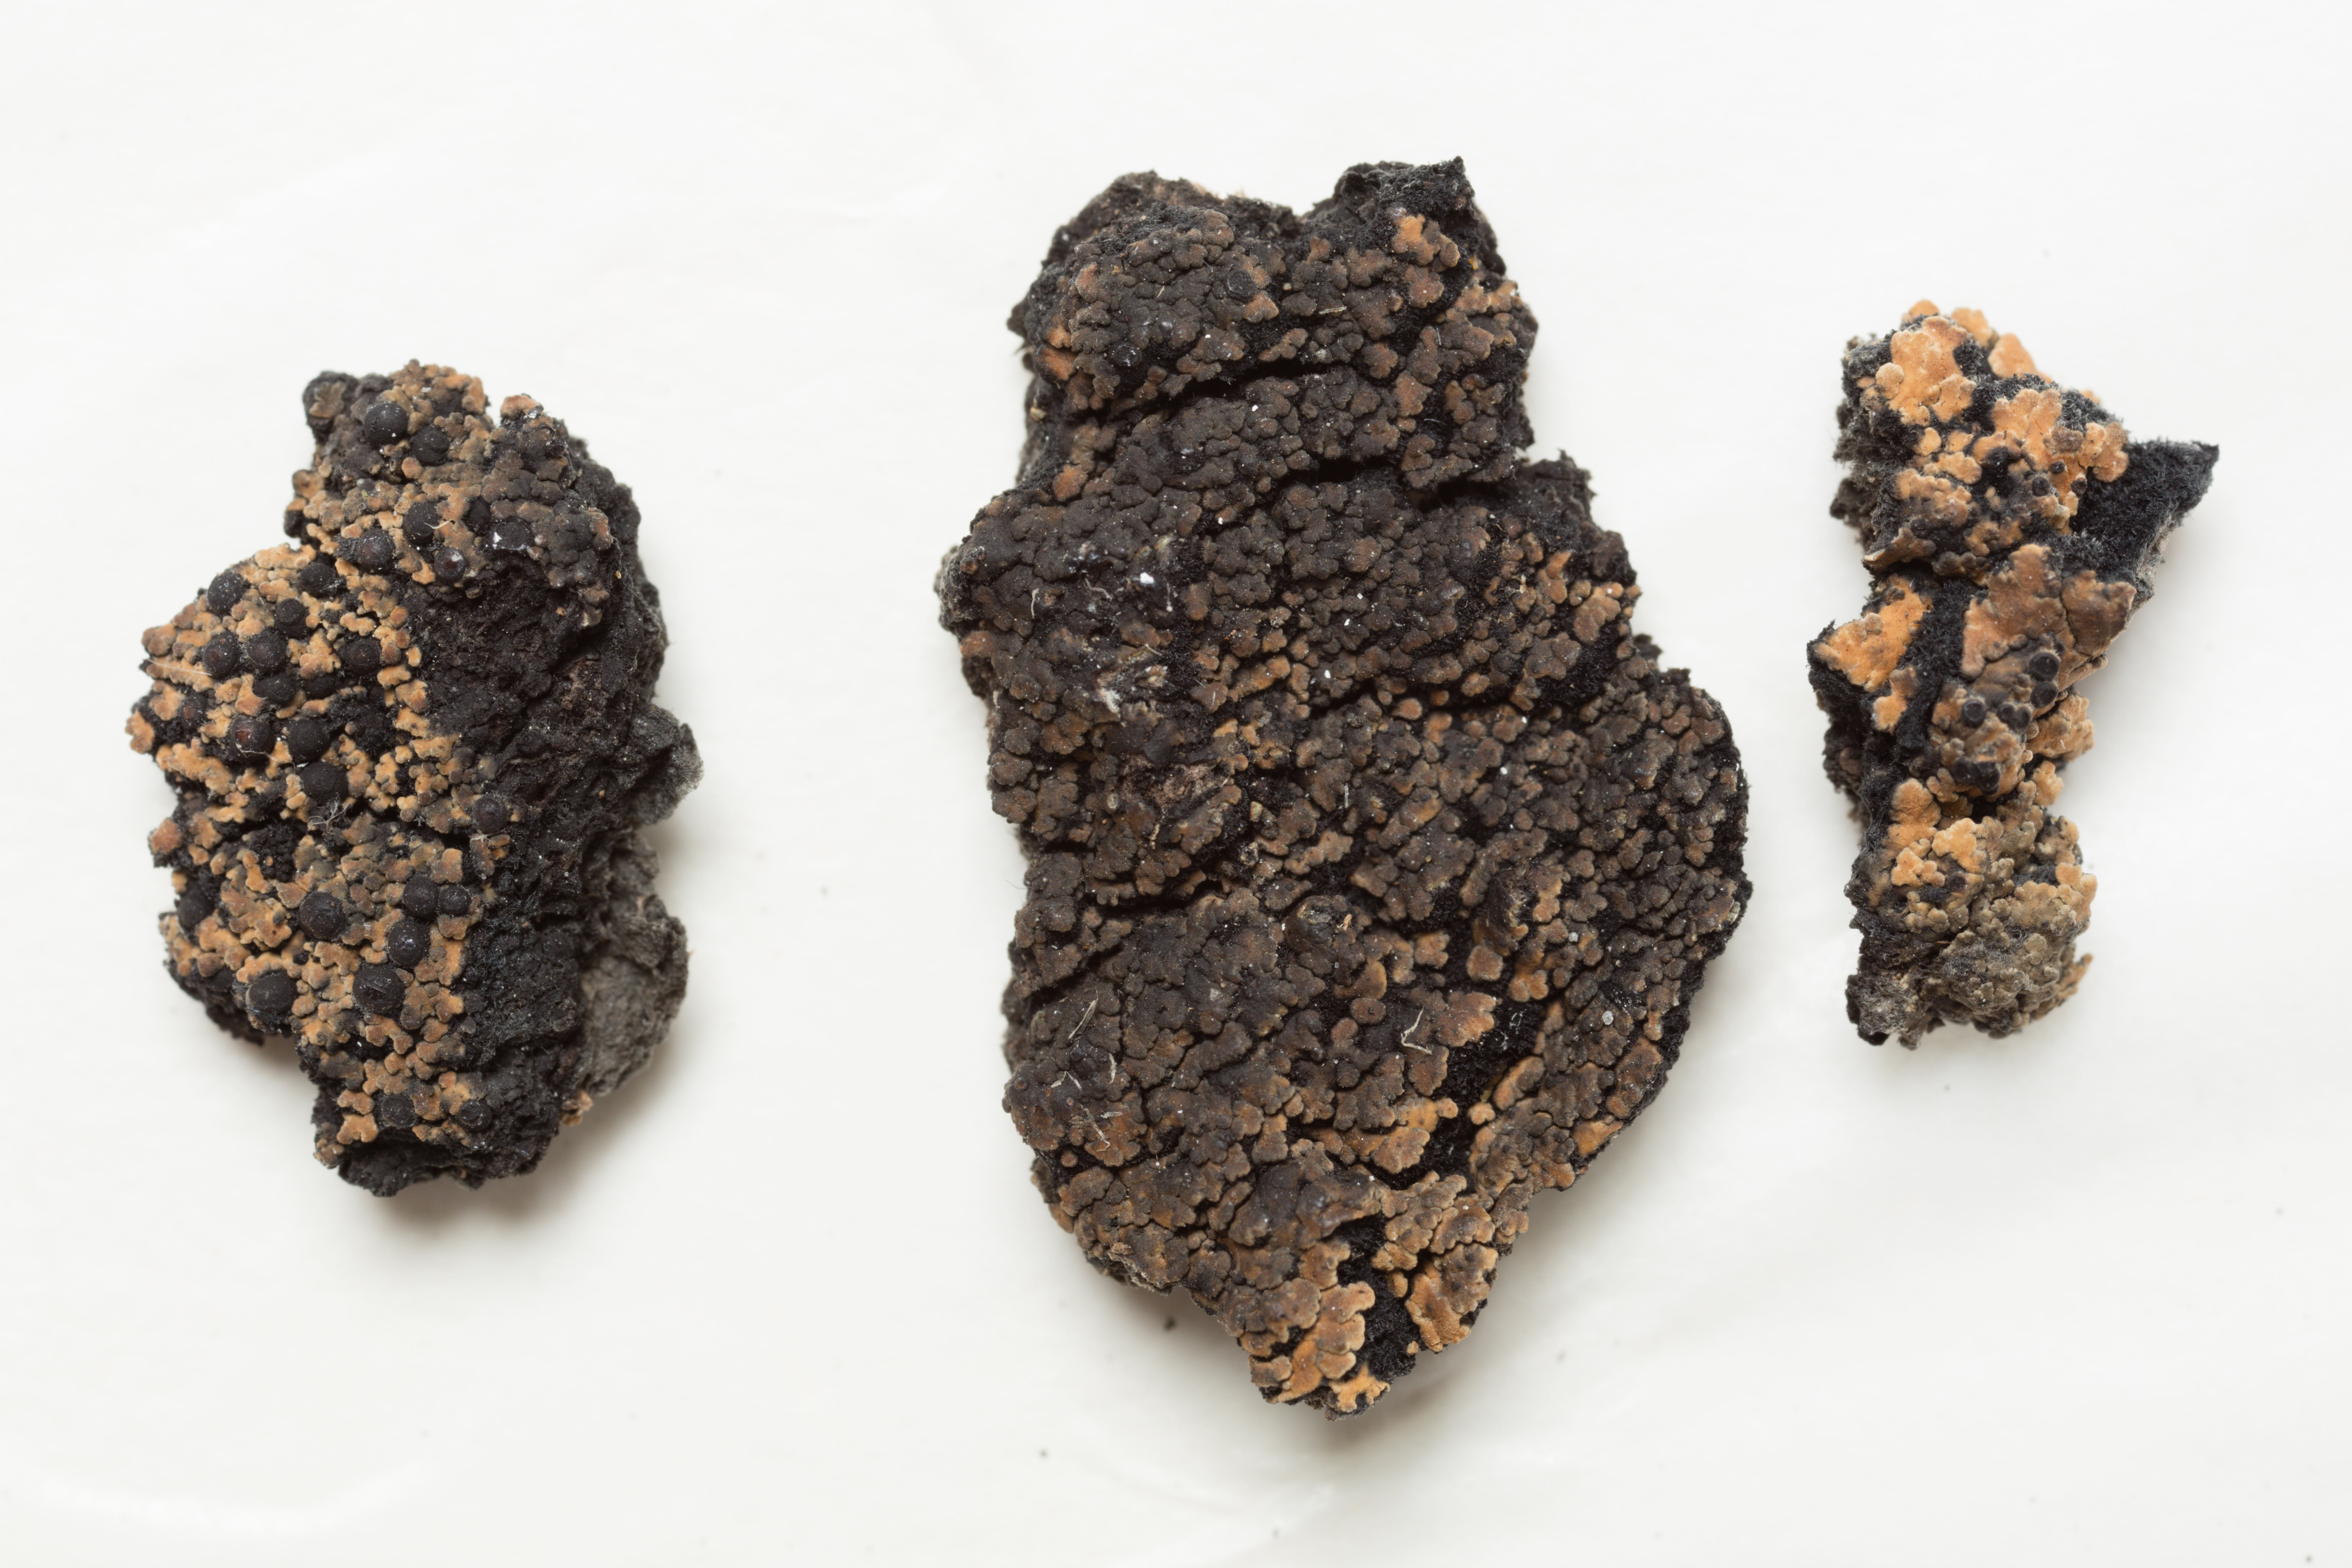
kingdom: Fungi
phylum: Ascomycota
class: Lecanoromycetes
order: Peltigerales
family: Pannariaceae
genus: Parmeliella
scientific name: Parmeliella crassa
